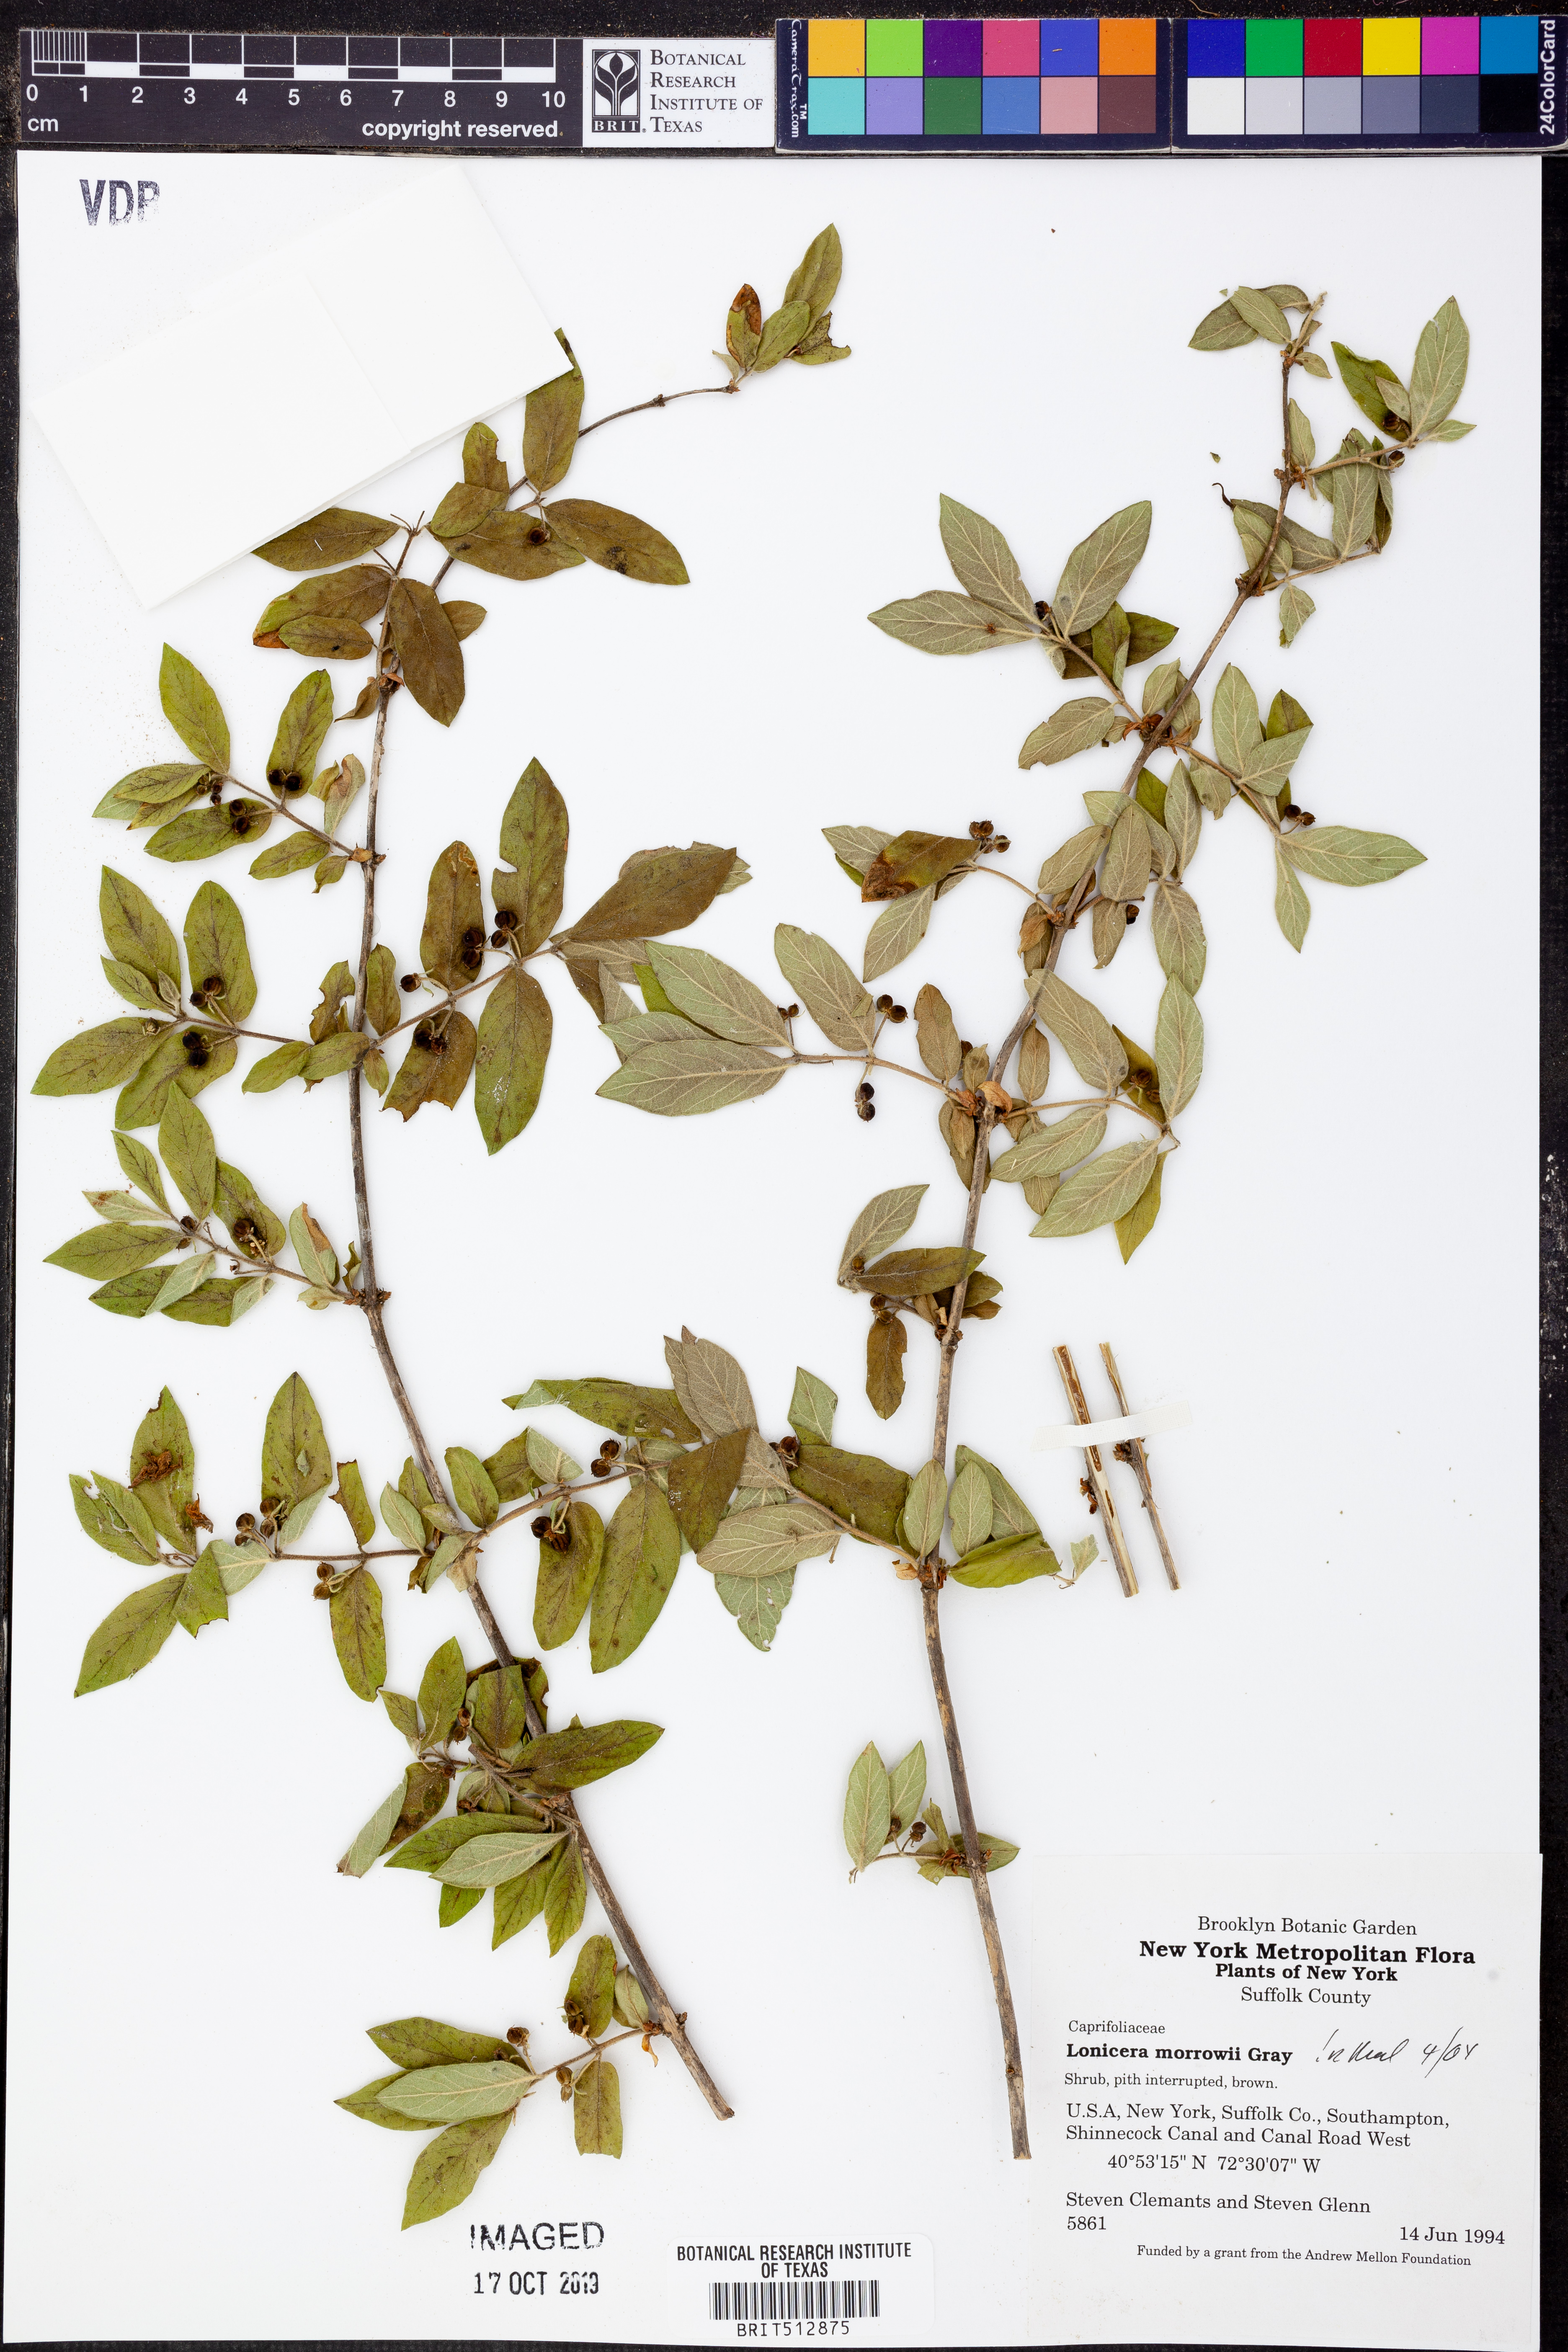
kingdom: Plantae
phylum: Tracheophyta
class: Magnoliopsida
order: Dipsacales
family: Caprifoliaceae
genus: Lonicera
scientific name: Lonicera morrowii
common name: Morrow's honeysuckle
